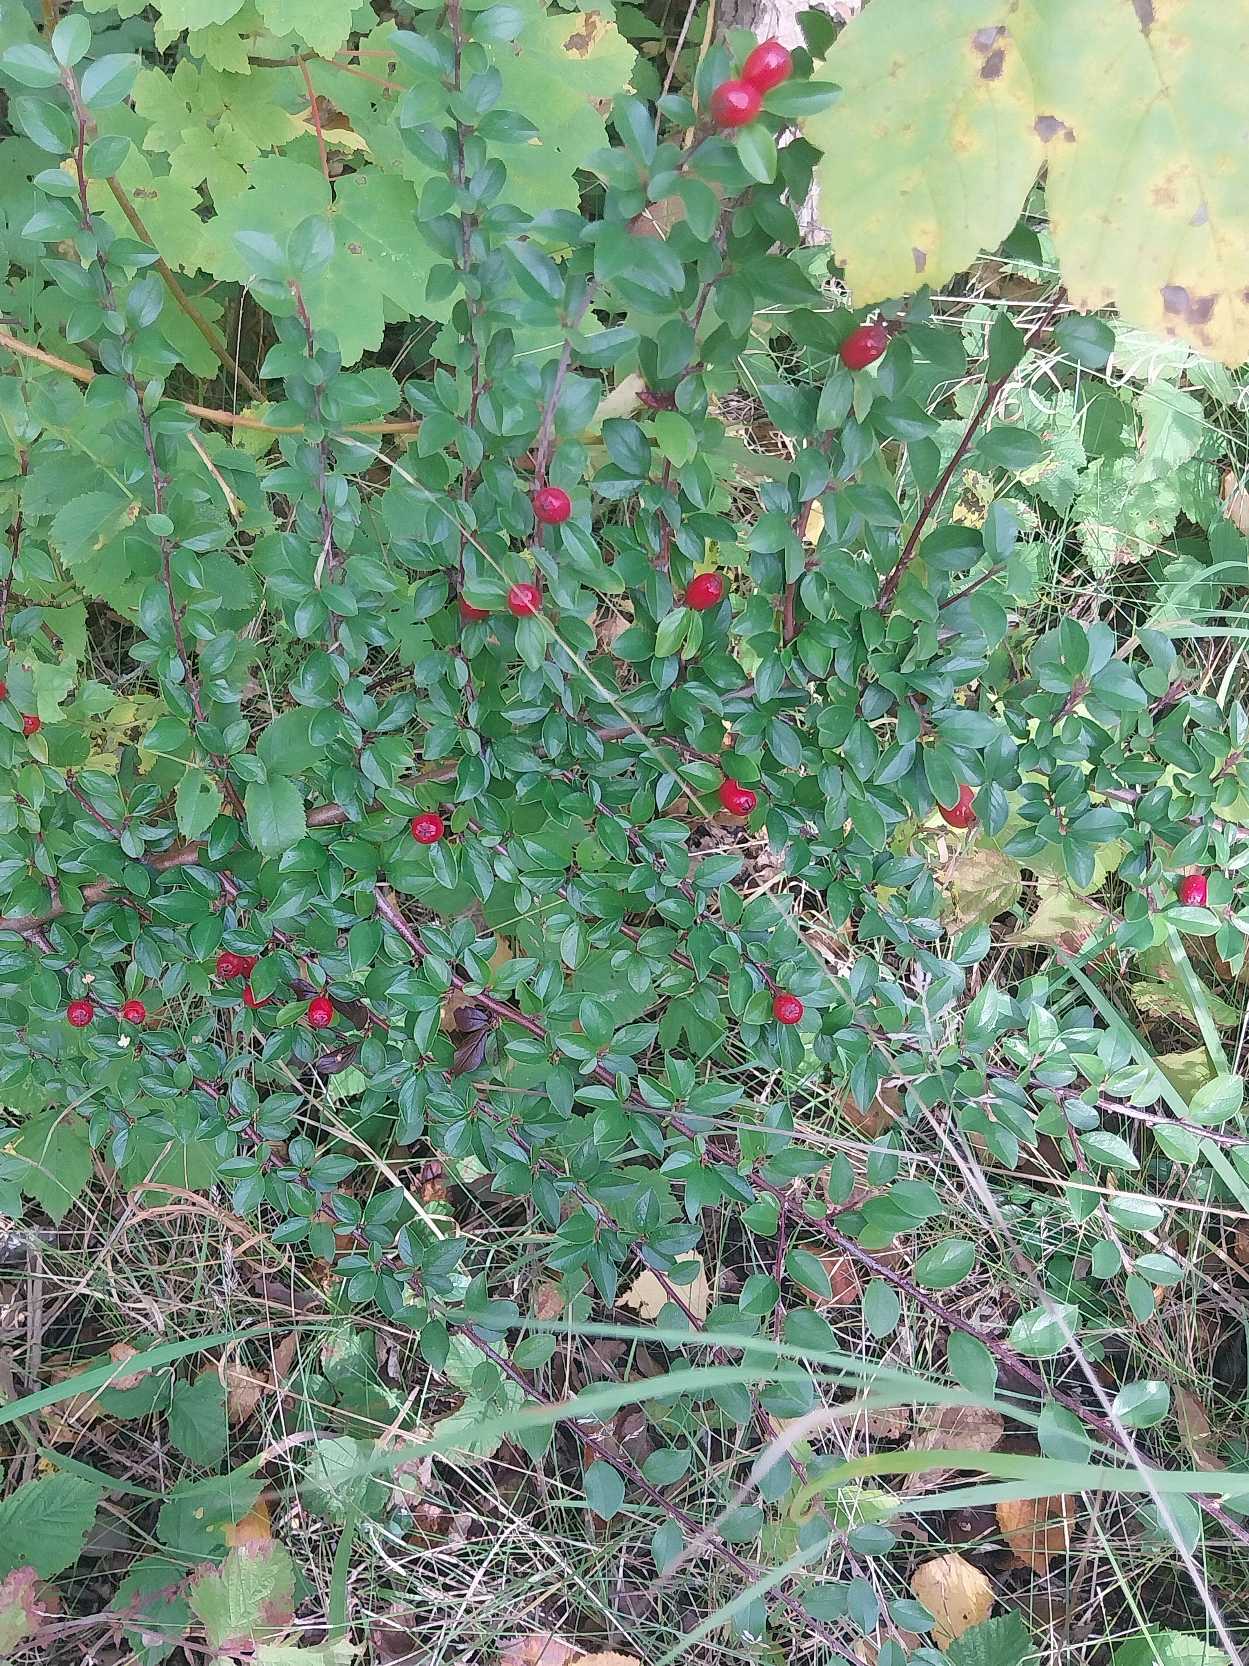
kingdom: Plantae
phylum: Tracheophyta
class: Magnoliopsida
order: Rosales
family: Rosaceae
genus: Cotoneaster
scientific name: Cotoneaster horizontalis
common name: Lodret og vandret
